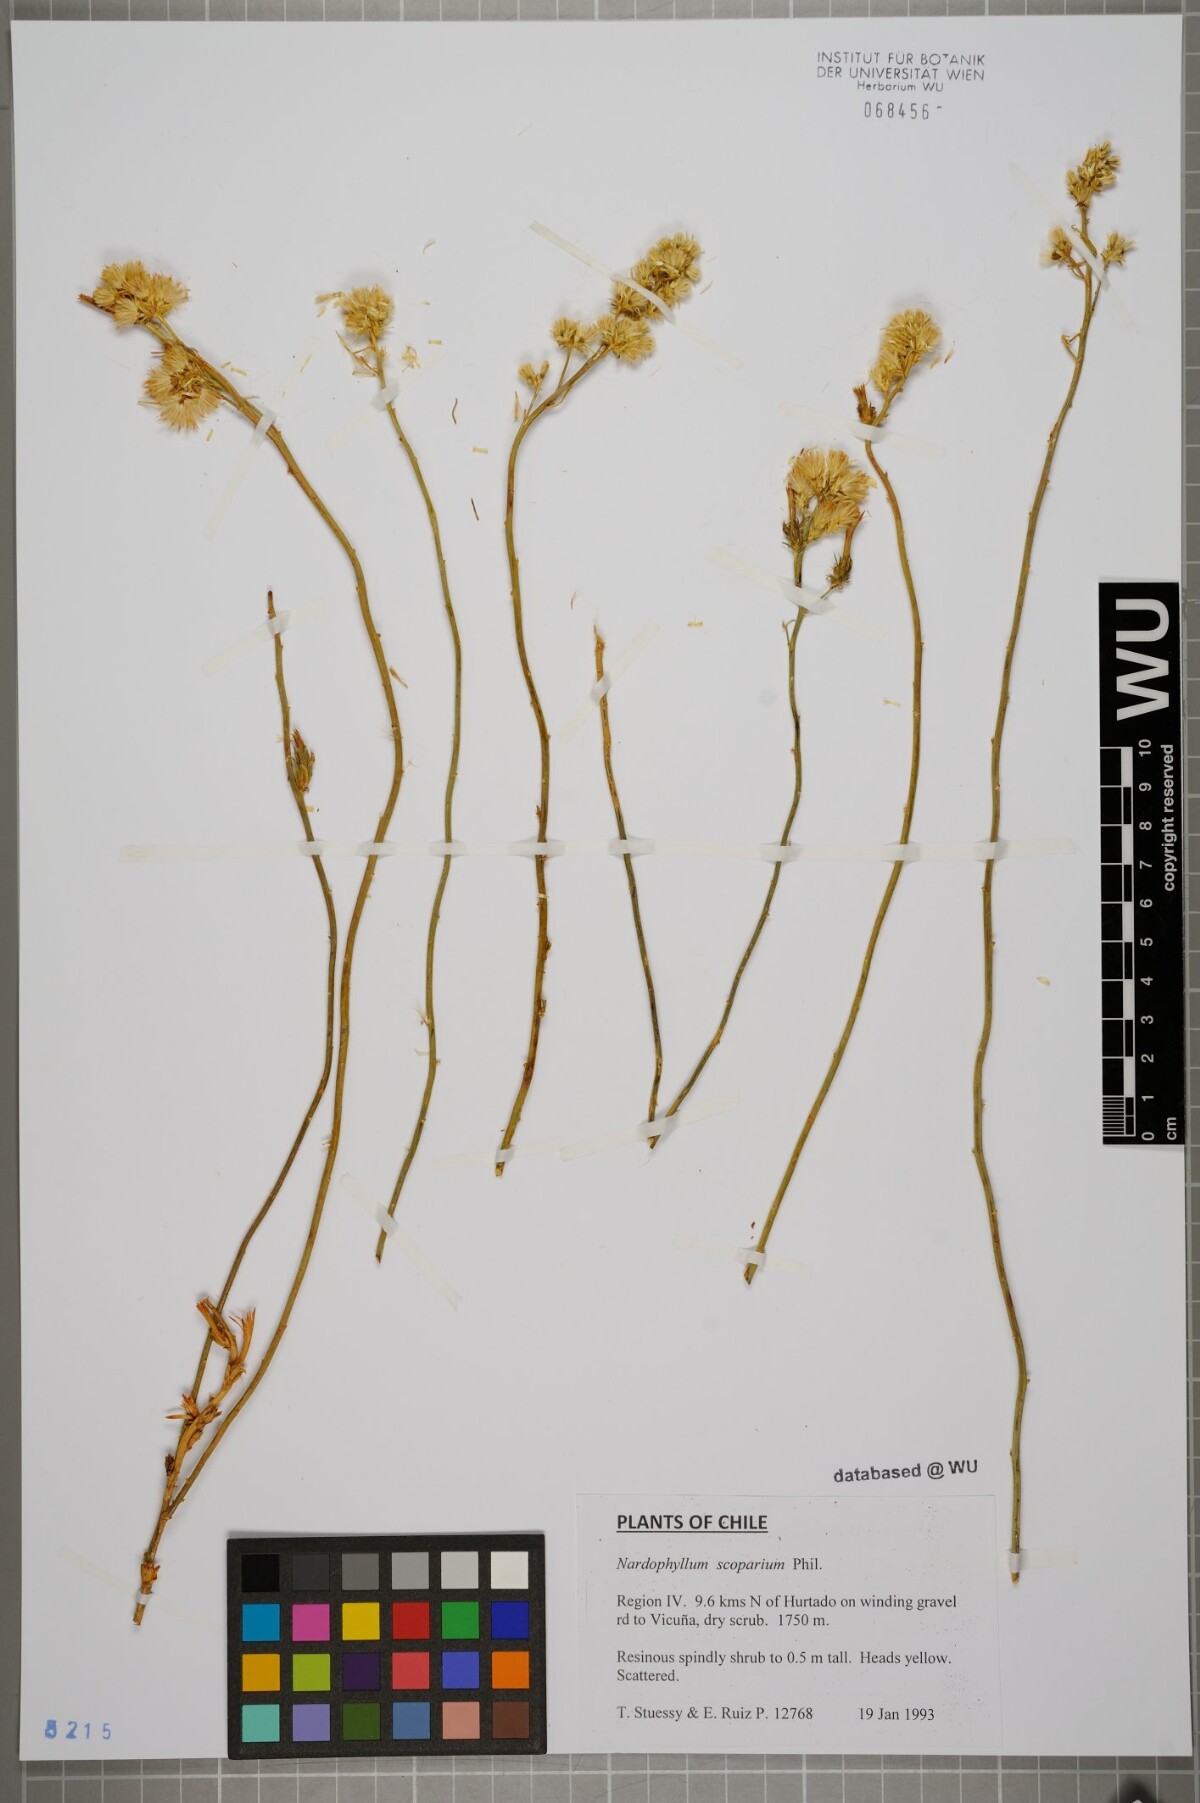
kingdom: Plantae
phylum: Tracheophyta
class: Magnoliopsida
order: Asterales
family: Asteraceae
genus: Guynesomia
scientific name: Guynesomia scoparia
